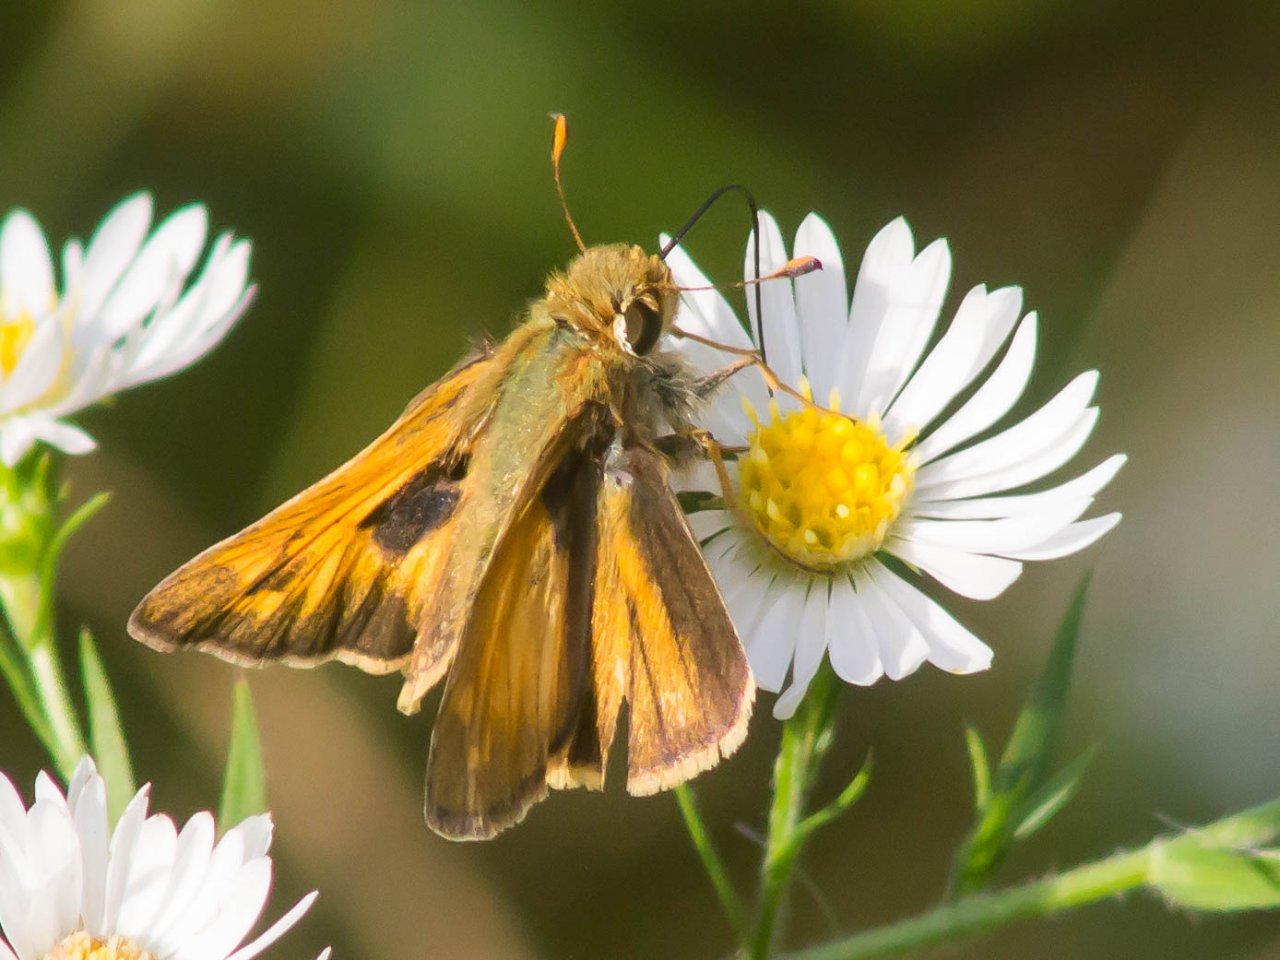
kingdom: Animalia
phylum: Arthropoda
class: Insecta
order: Lepidoptera
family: Hesperiidae
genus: Atalopedes
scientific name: Atalopedes campestris
